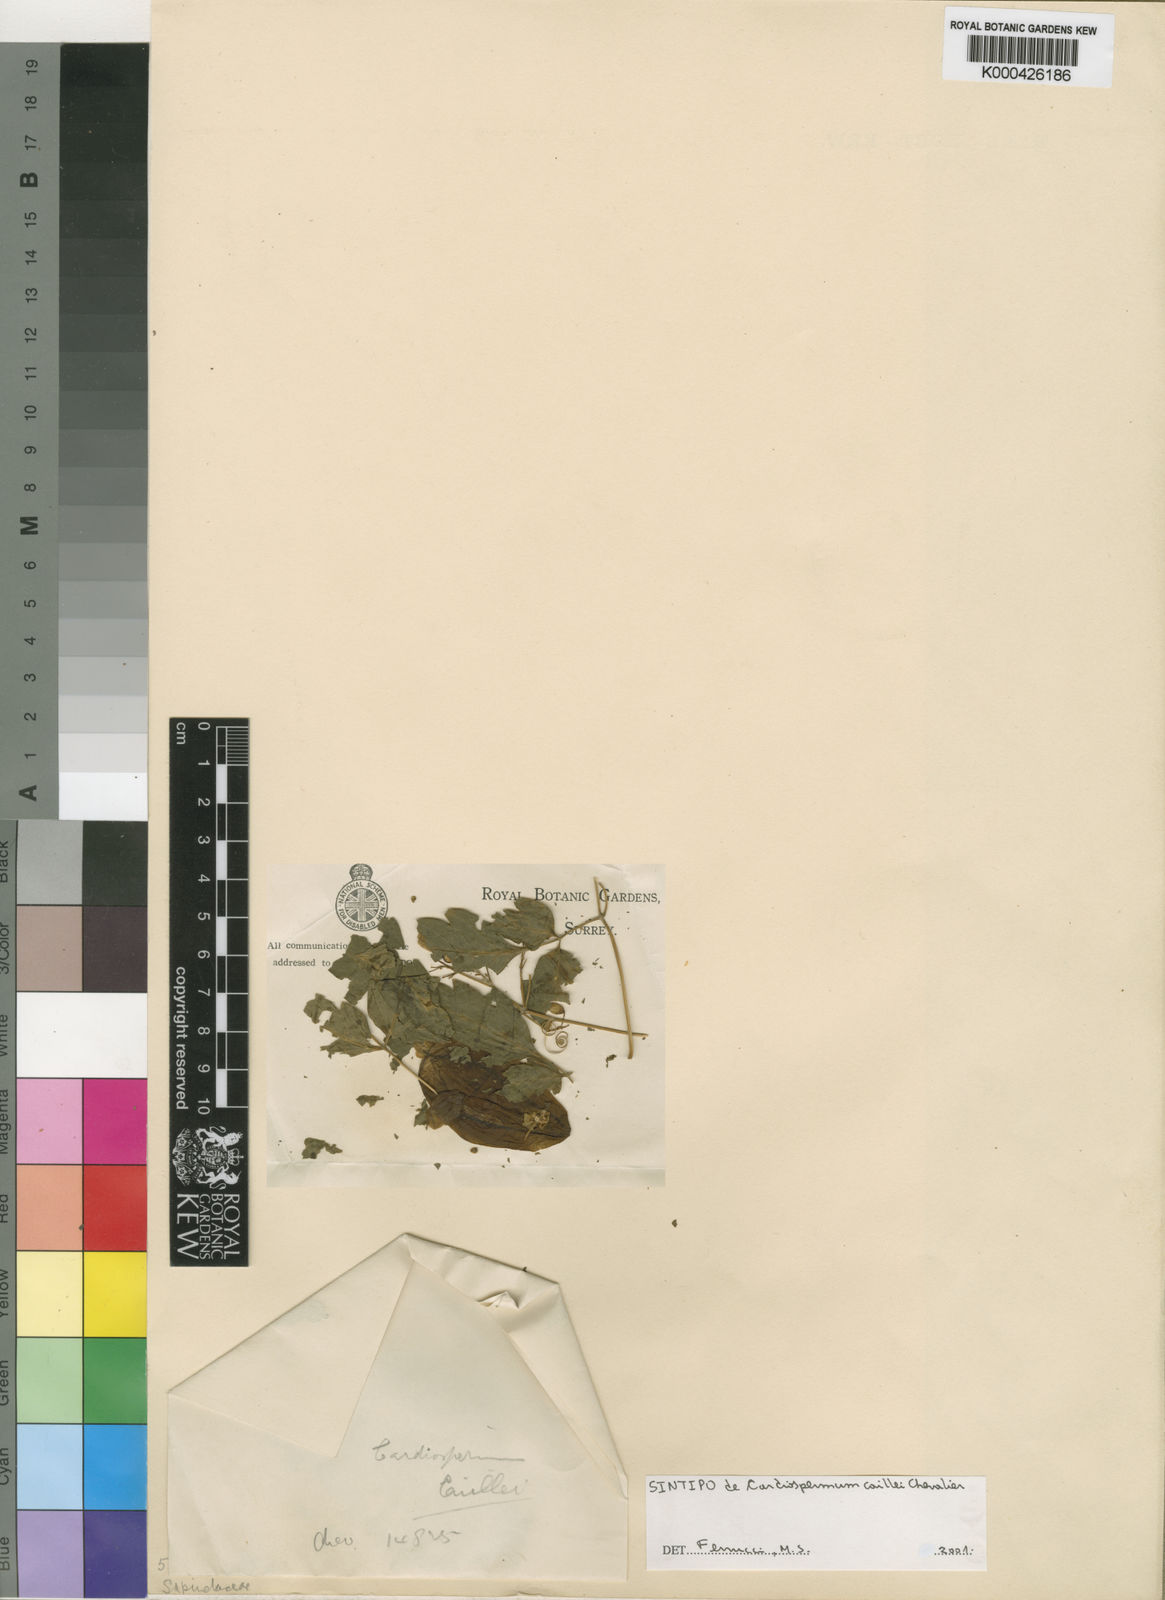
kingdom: Plantae
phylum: Tracheophyta
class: Magnoliopsida
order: Sapindales
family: Sapindaceae
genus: Cardiospermum
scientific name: Cardiospermum grandiflorum
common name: Balloon vine
